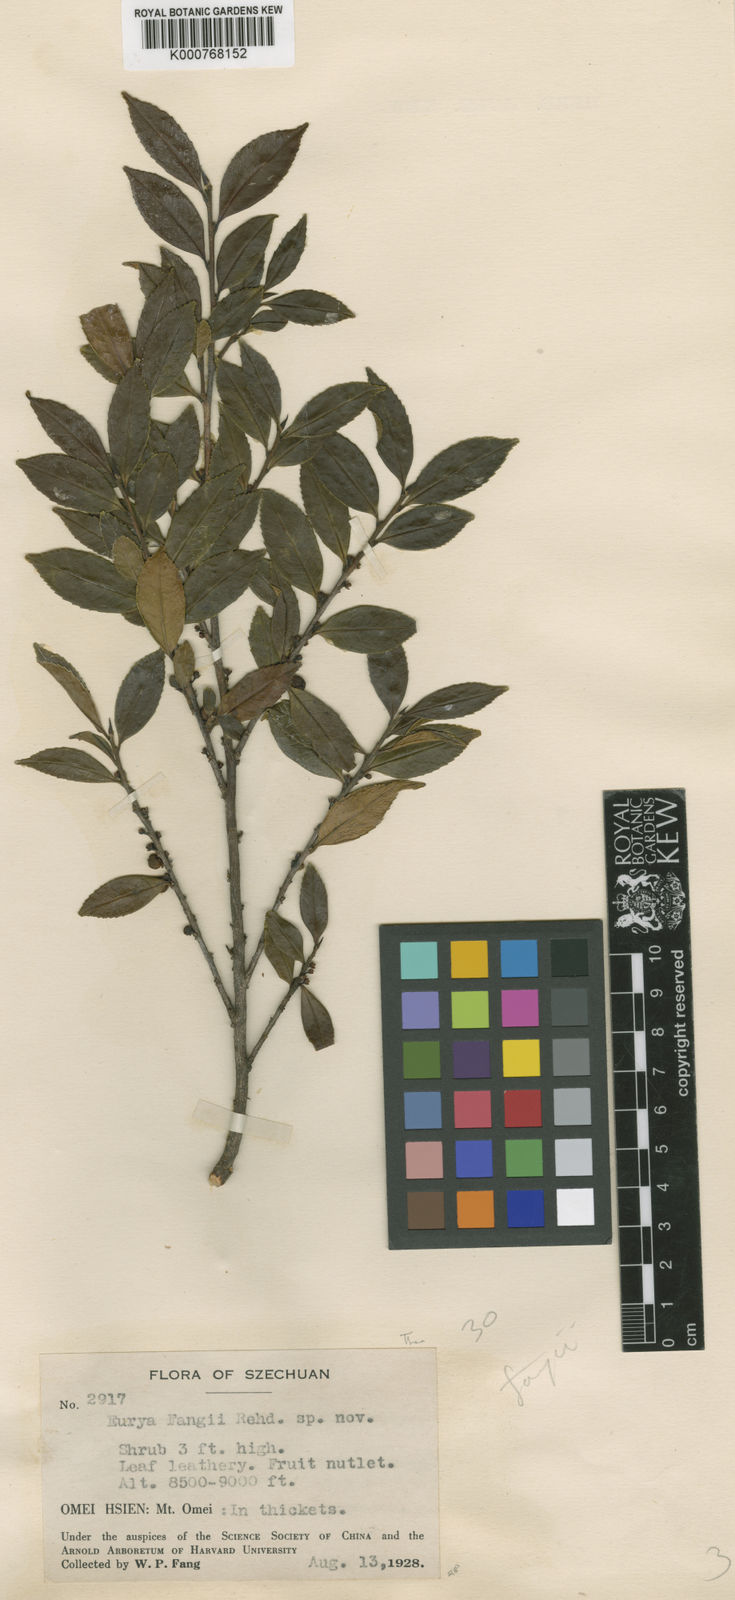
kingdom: Plantae
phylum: Tracheophyta
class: Magnoliopsida
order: Ericales
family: Pentaphylacaceae
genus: Eurya
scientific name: Eurya fangii
